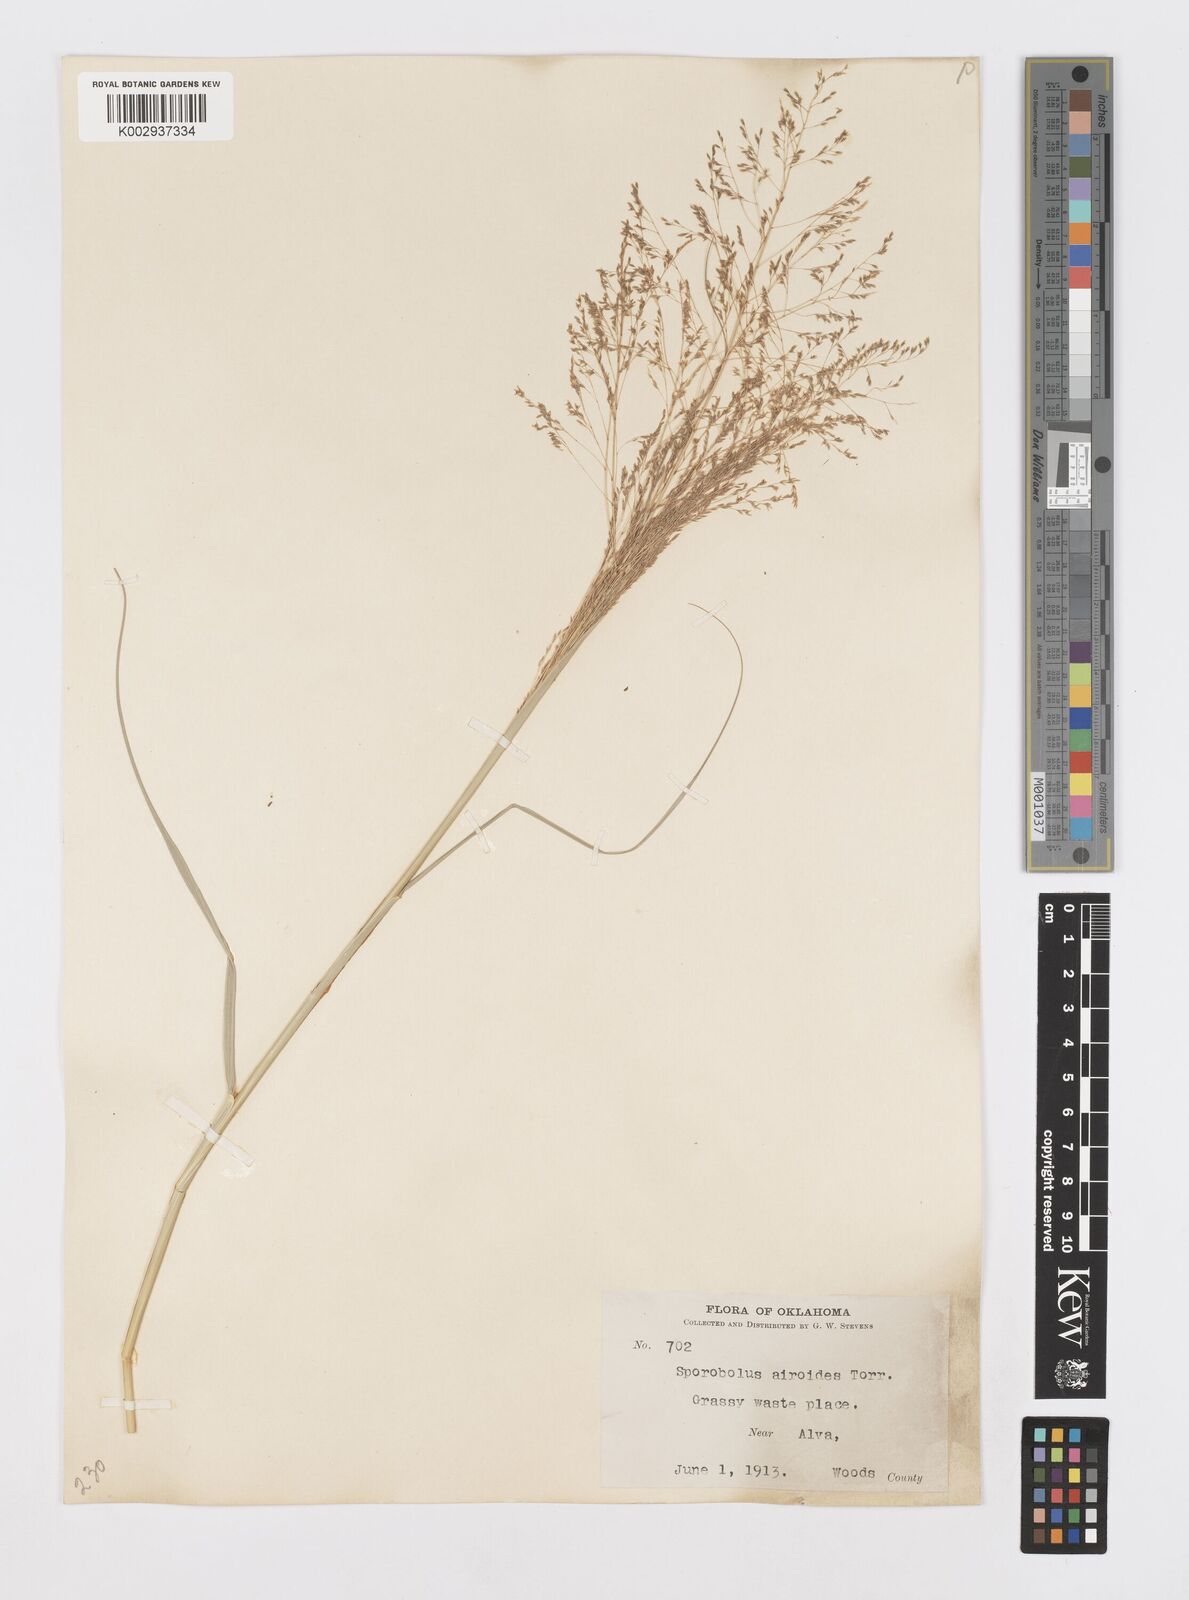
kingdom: Plantae
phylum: Tracheophyta
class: Liliopsida
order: Poales
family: Poaceae
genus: Sporobolus
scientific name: Sporobolus airoides
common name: Alkali sacaton
